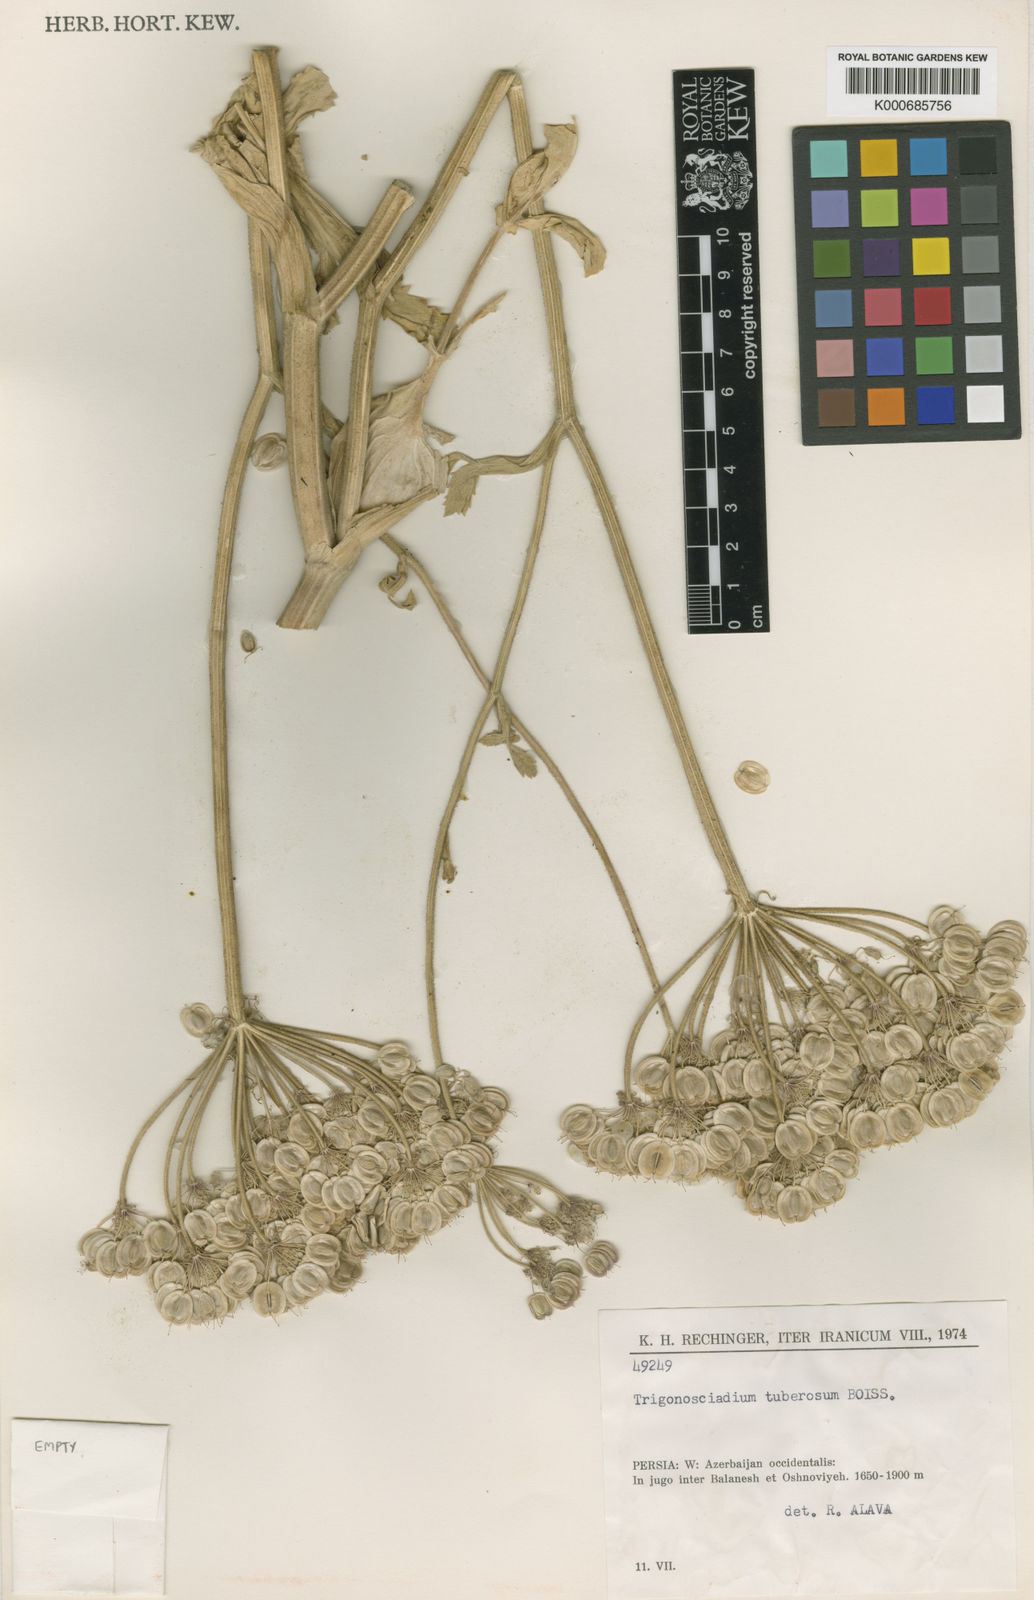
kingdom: Plantae
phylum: Tracheophyta
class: Magnoliopsida
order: Apiales
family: Apiaceae
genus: Trigonosciadium
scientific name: Trigonosciadium tuberosum
